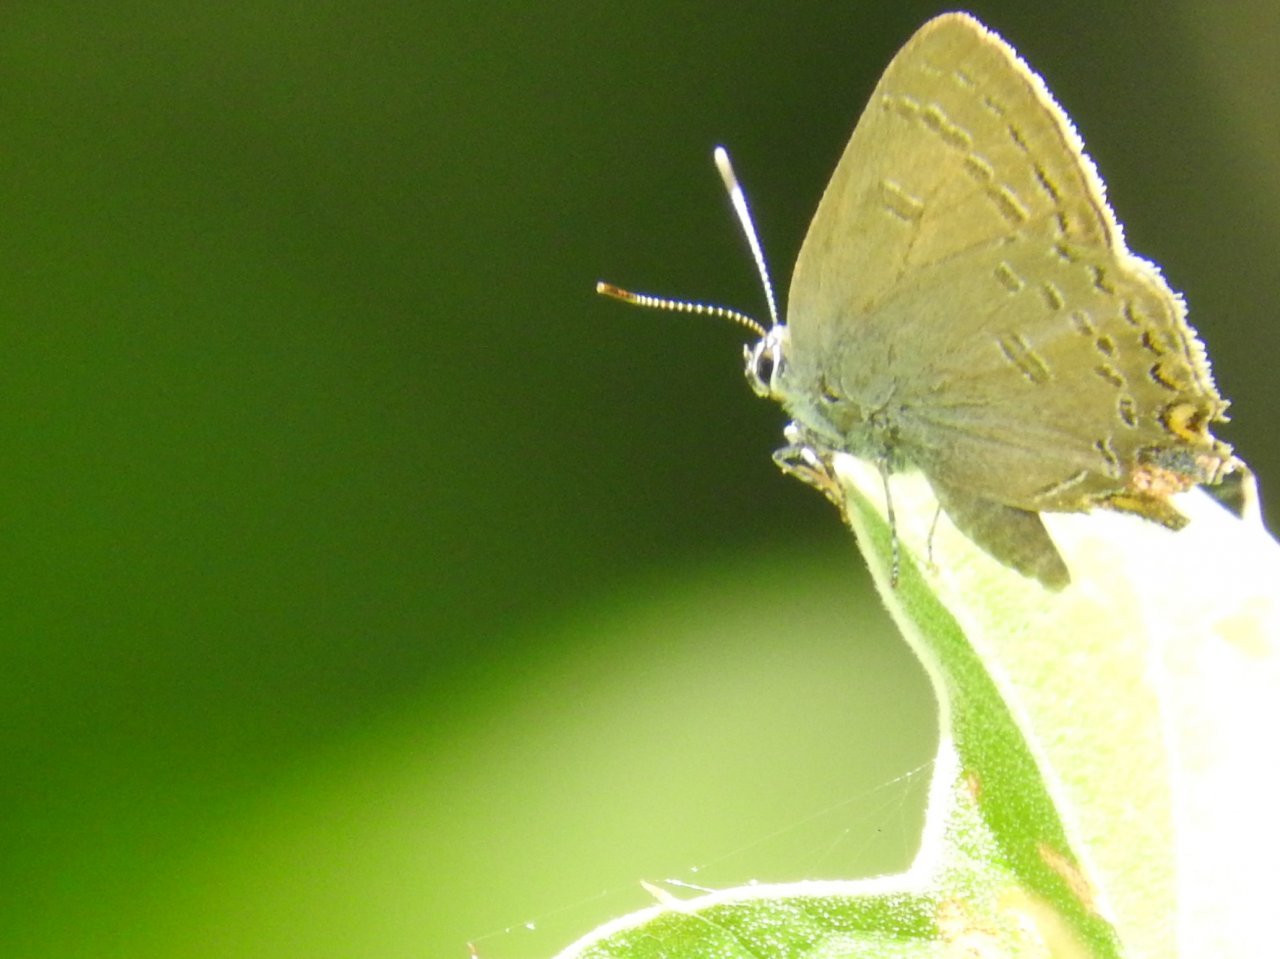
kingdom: Animalia
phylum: Arthropoda
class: Insecta
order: Lepidoptera
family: Lycaenidae
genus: Satyrium
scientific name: Satyrium edwardsii
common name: Edwards' Hairstreak
